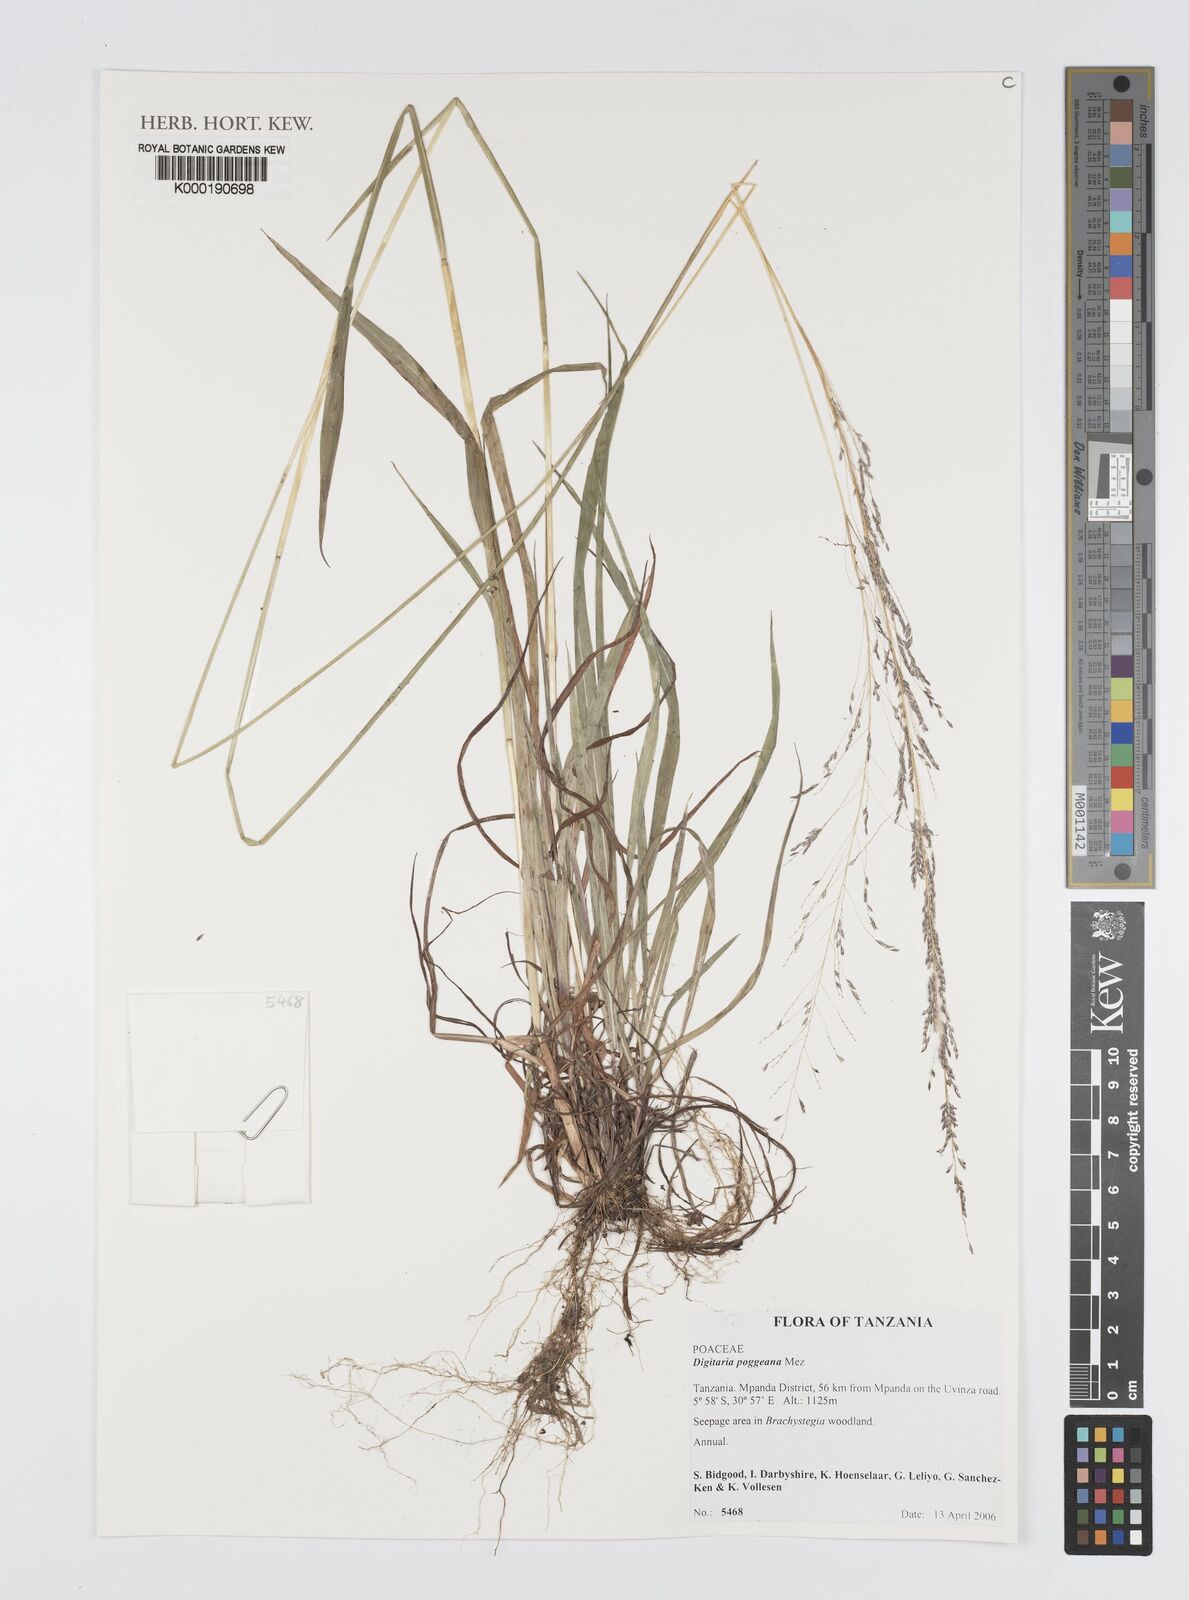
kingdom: Plantae
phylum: Tracheophyta
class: Liliopsida
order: Poales
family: Poaceae
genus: Digitaria
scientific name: Digitaria poggeana
